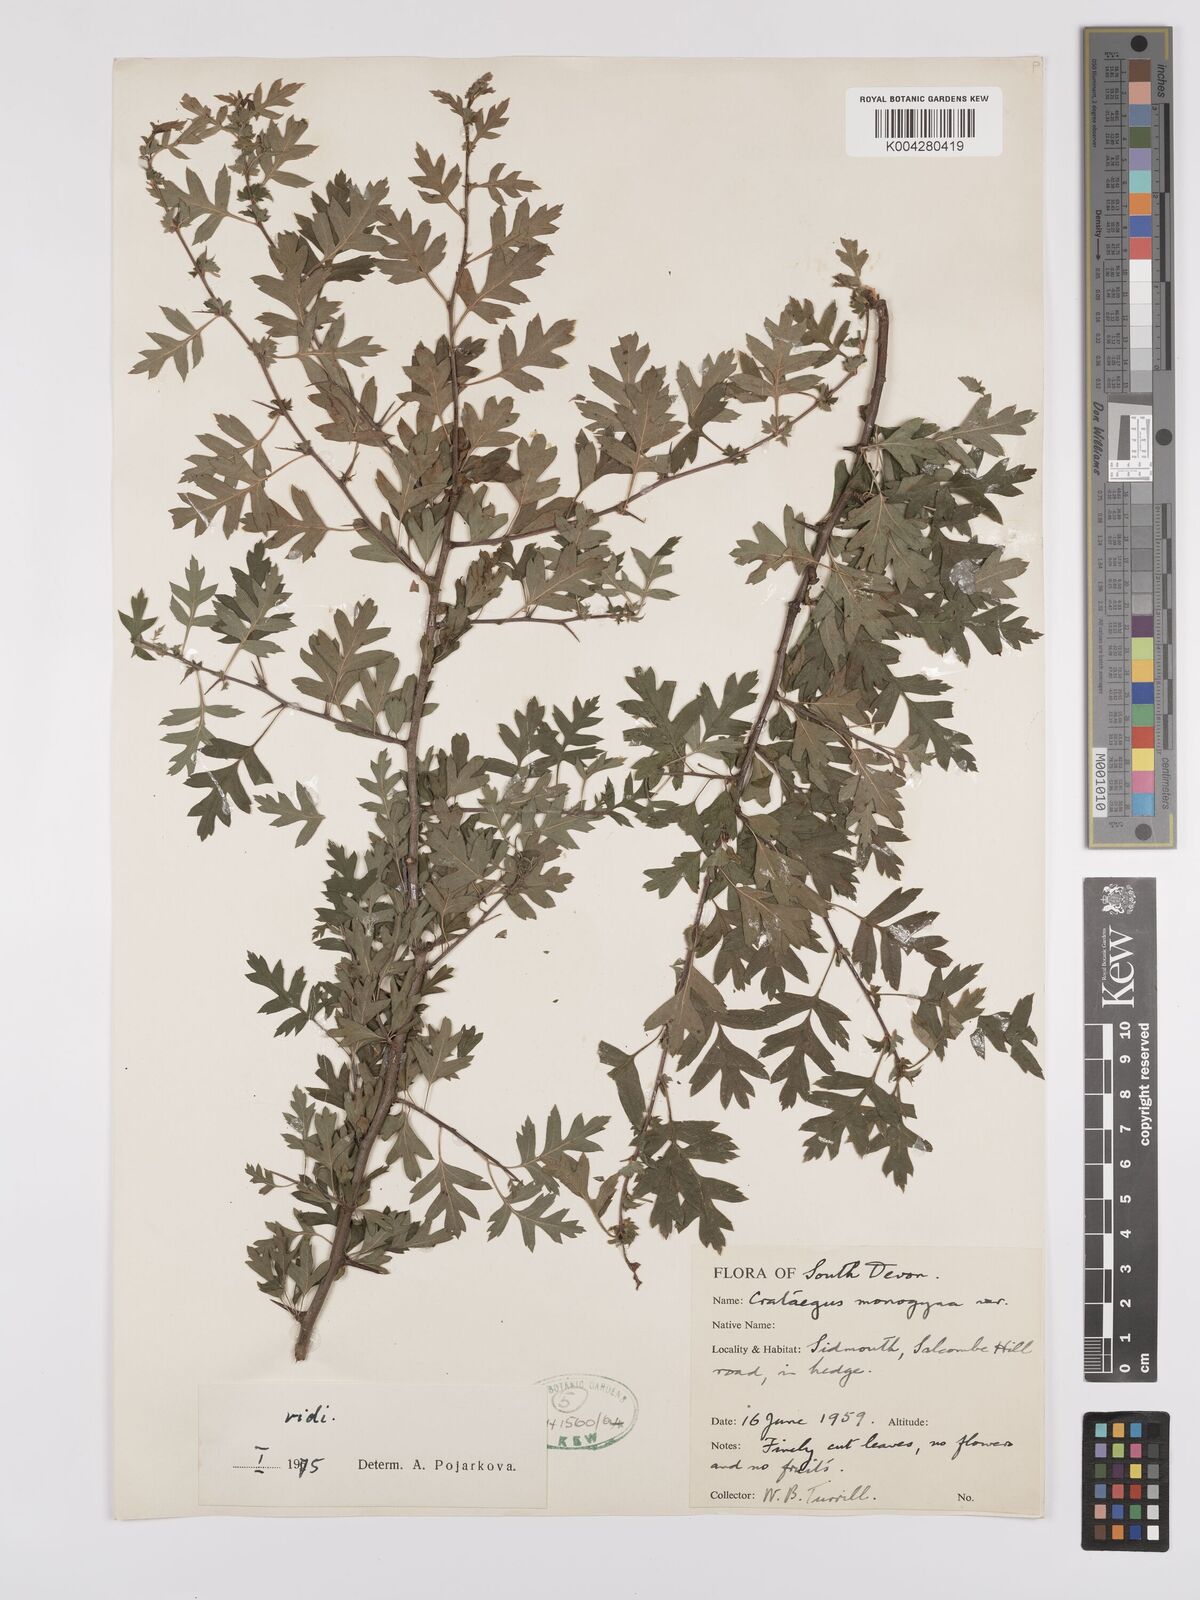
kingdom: Plantae
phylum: Tracheophyta
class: Magnoliopsida
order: Rosales
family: Rosaceae
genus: Crataegus
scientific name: Crataegus monogyna
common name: Hawthorn
